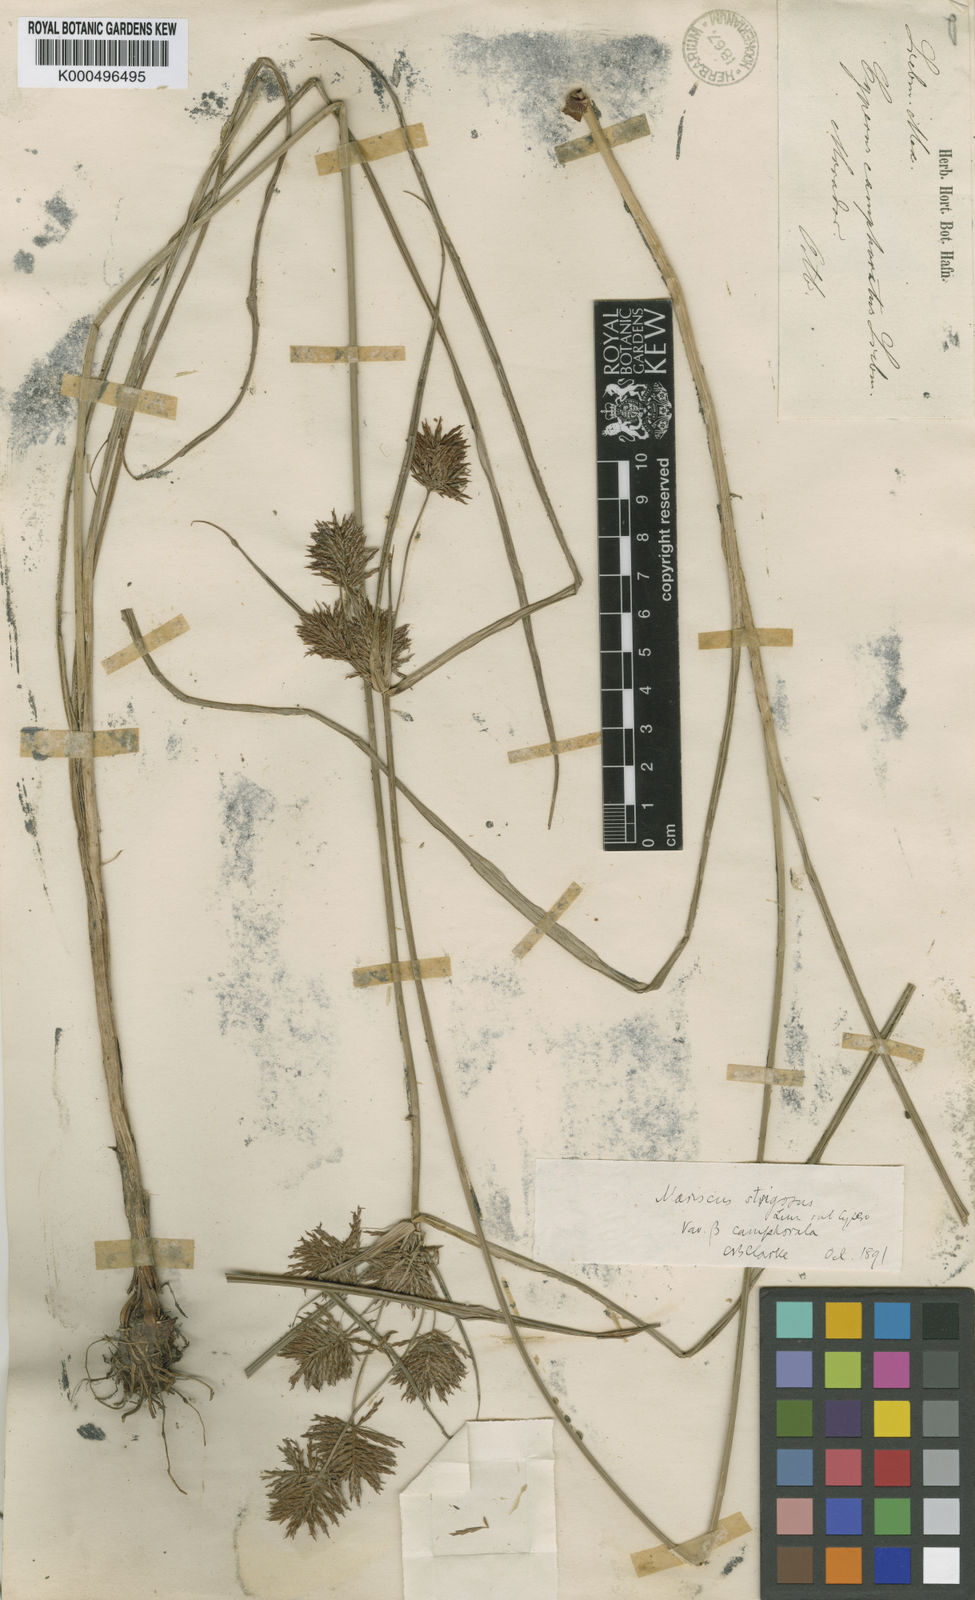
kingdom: Plantae
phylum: Tracheophyta
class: Liliopsida
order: Poales
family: Cyperaceae
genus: Cyperus
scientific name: Cyperus camphoratus
